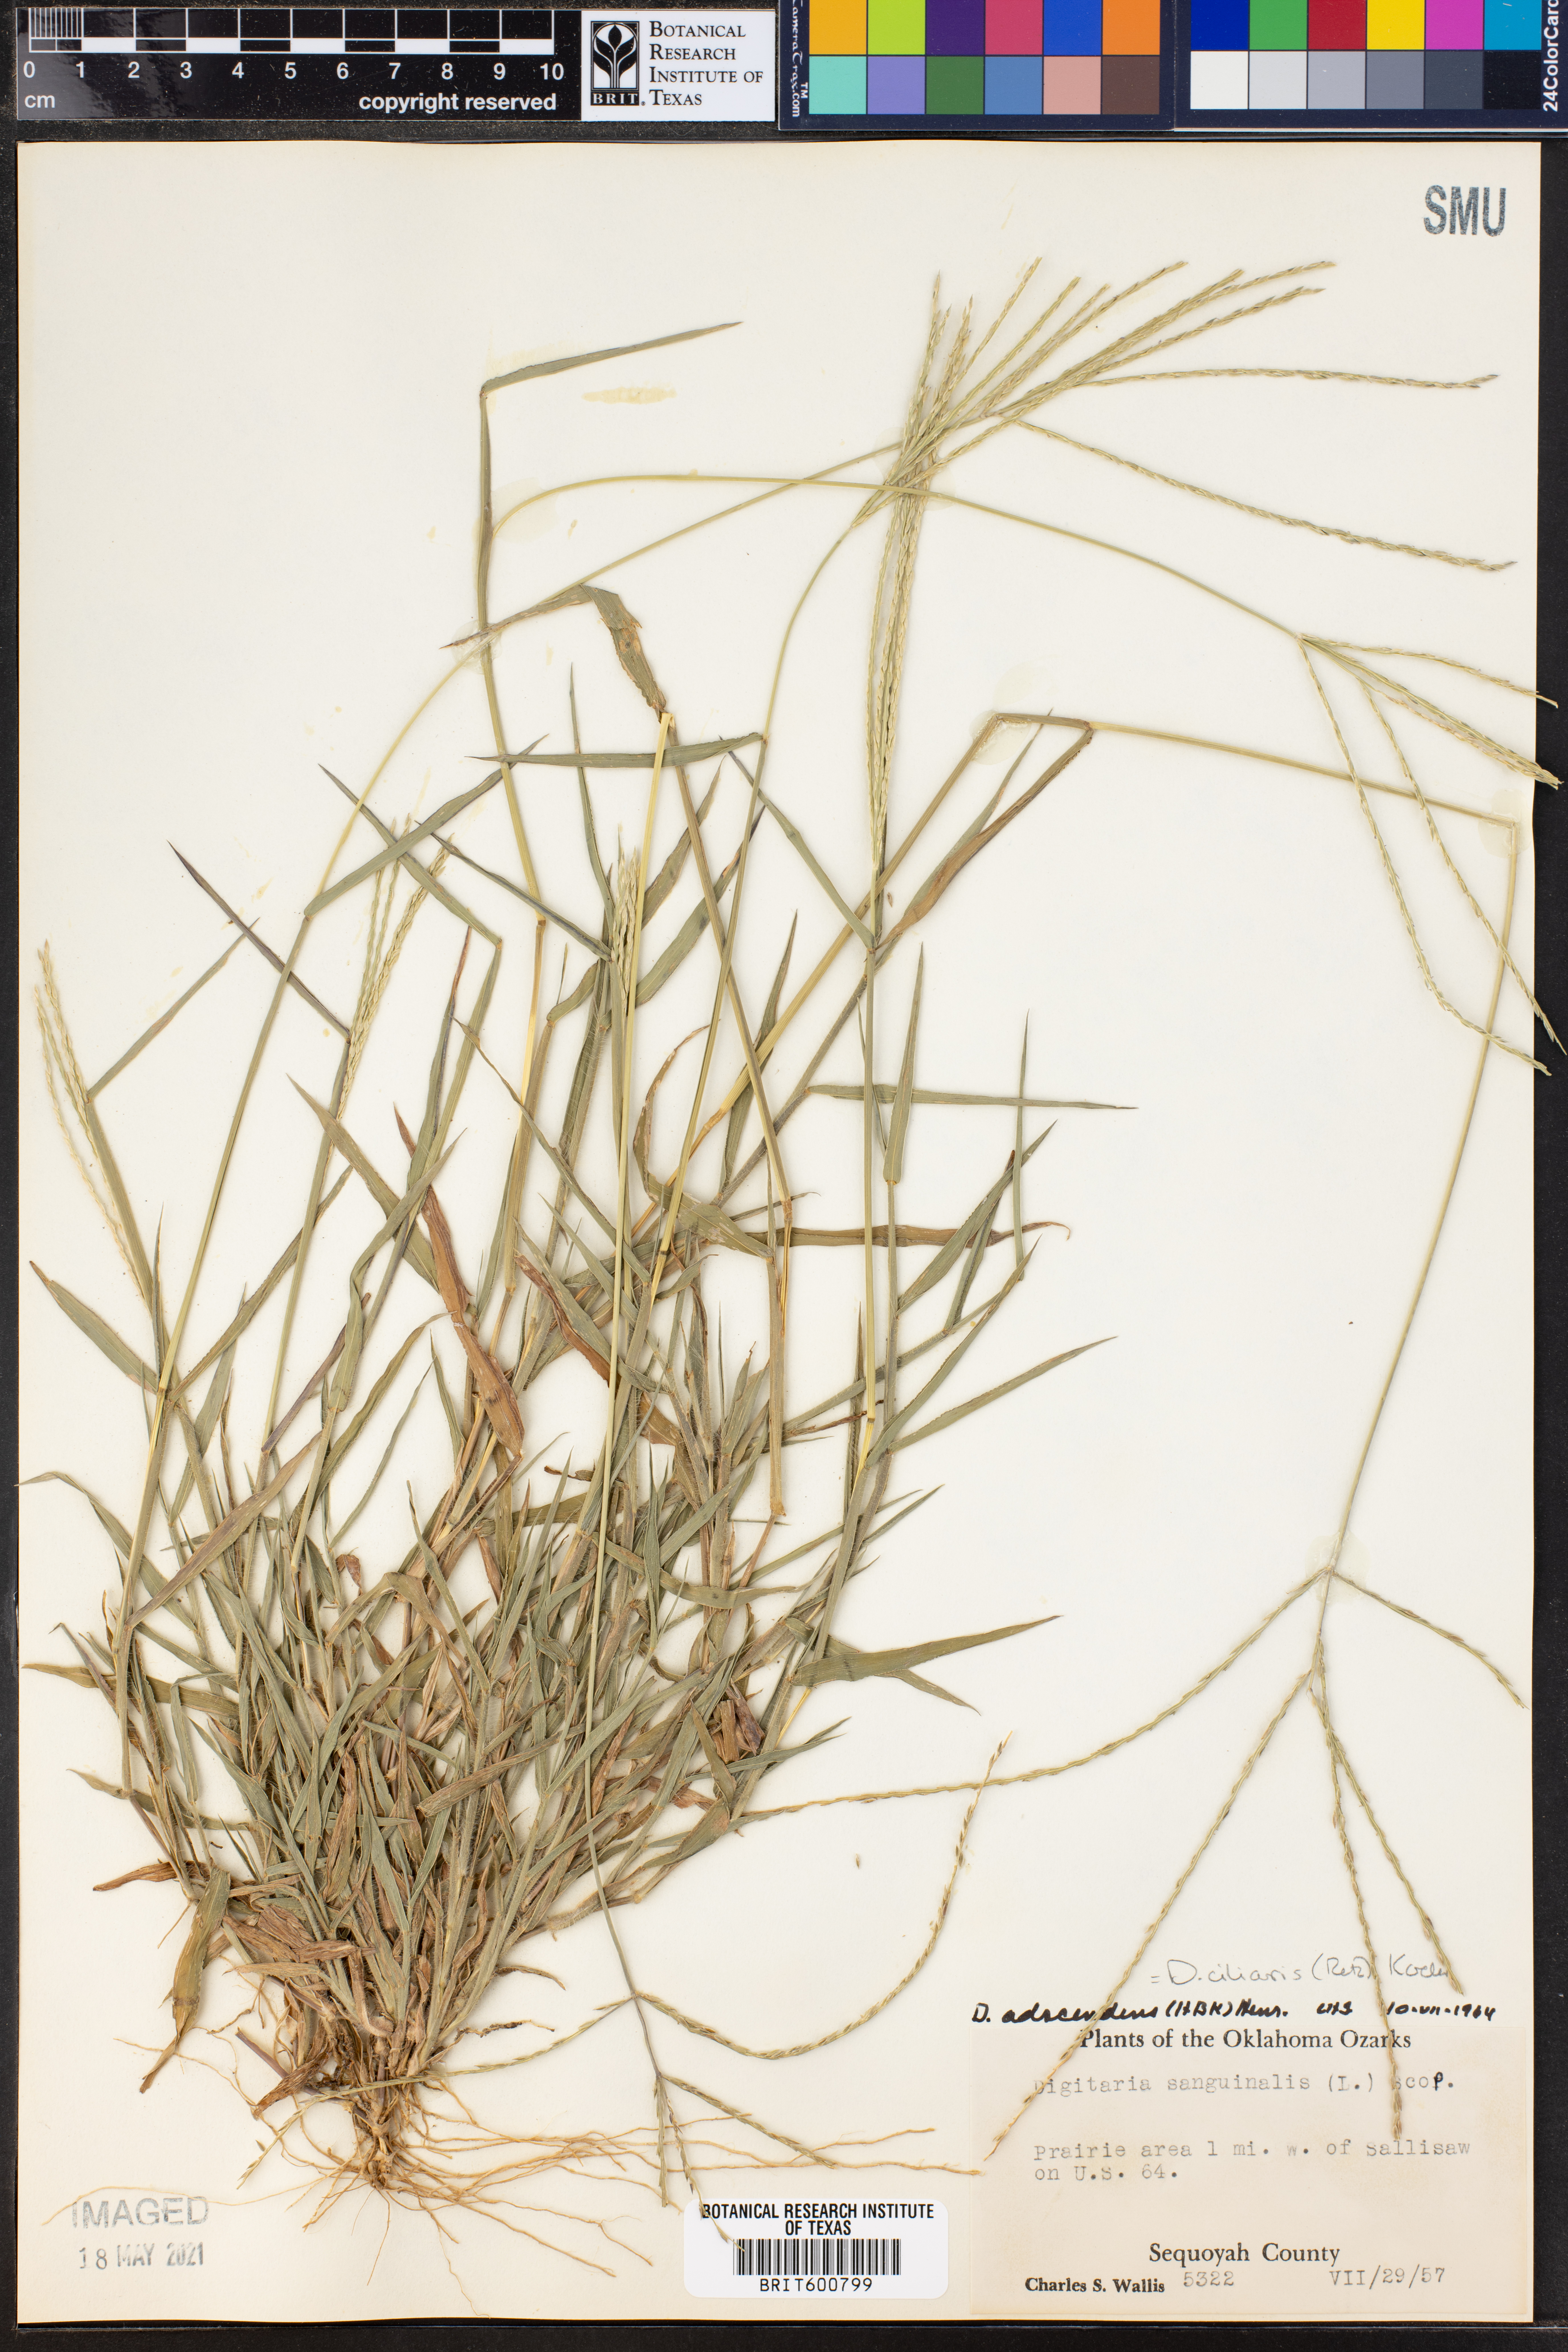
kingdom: Plantae
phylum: Tracheophyta
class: Liliopsida
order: Poales
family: Poaceae
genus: Digitaria
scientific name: Digitaria ciliaris
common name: Tropical finger-grass
